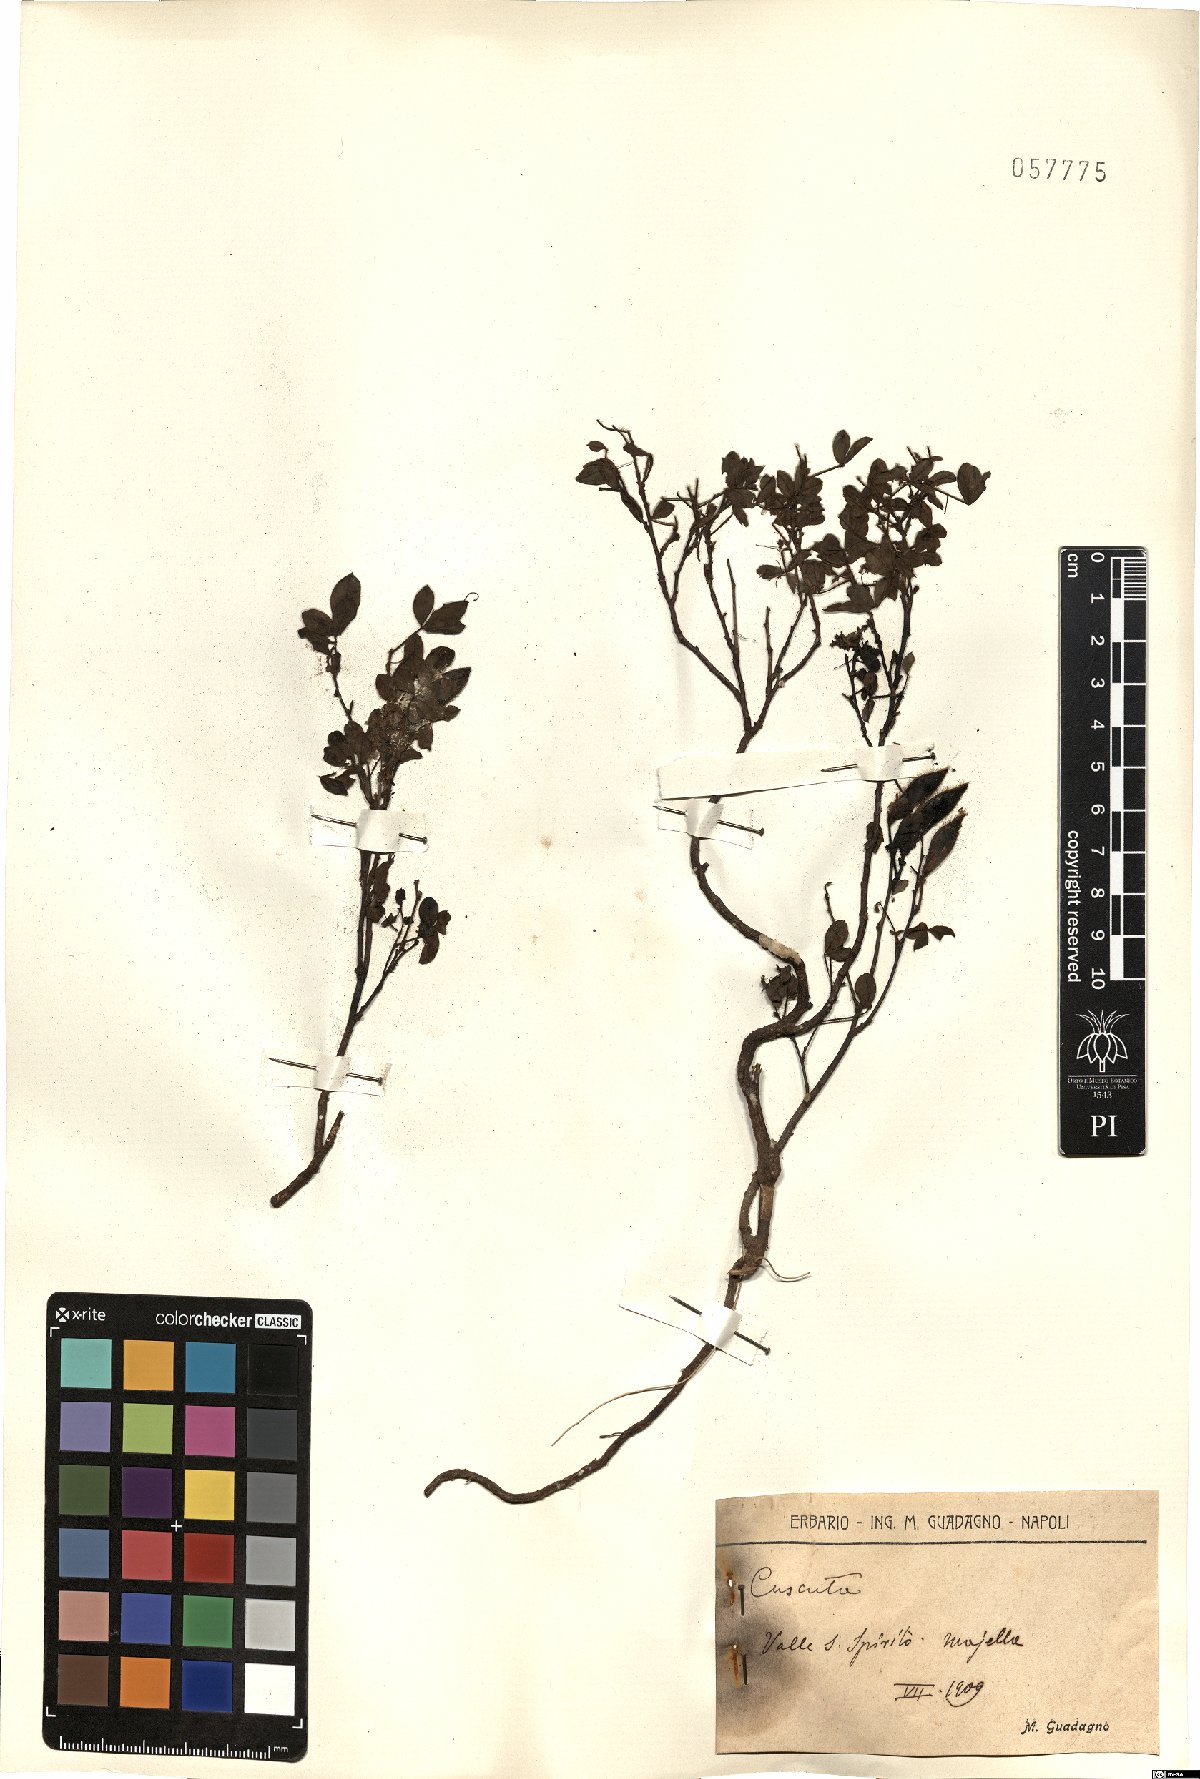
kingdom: Plantae
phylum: Tracheophyta
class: Magnoliopsida
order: Solanales
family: Convolvulaceae
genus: Cuscuta
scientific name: Cuscuta
